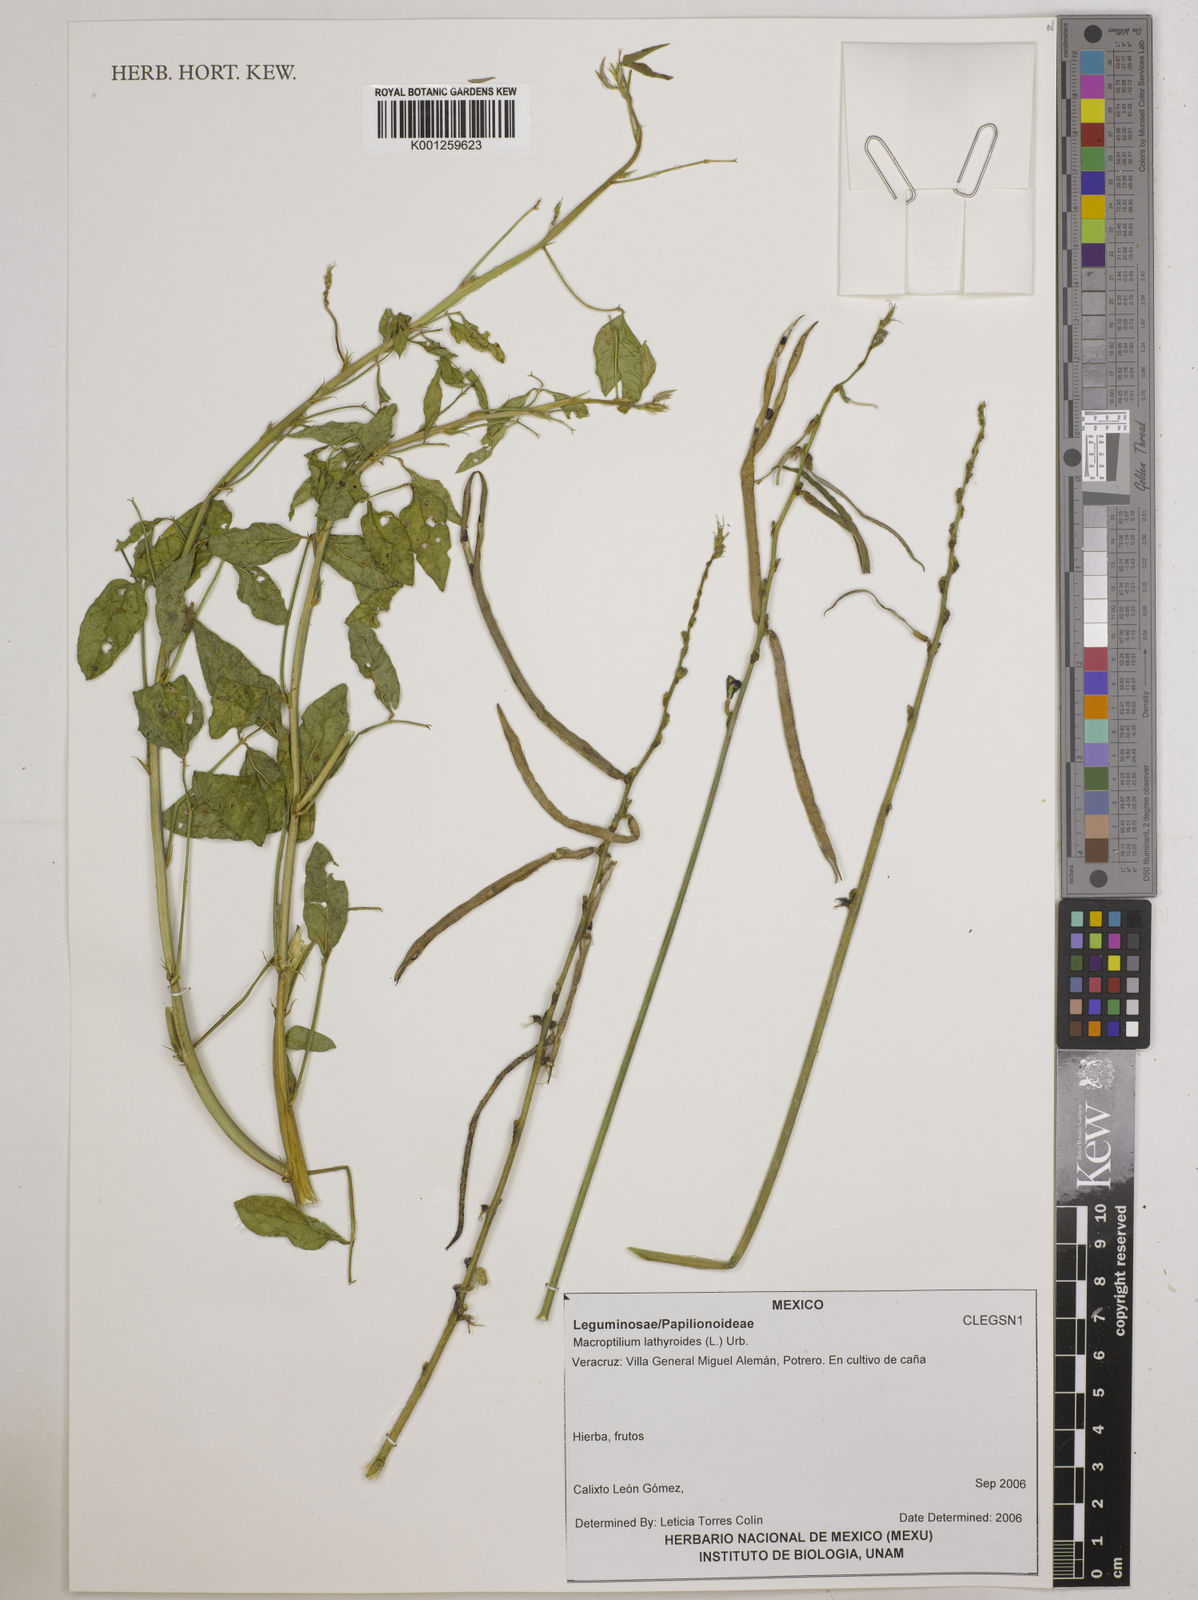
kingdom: Plantae
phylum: Tracheophyta
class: Magnoliopsida
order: Fabales
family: Fabaceae
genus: Macroptilium
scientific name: Macroptilium lathyroides
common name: Wild bushbean
